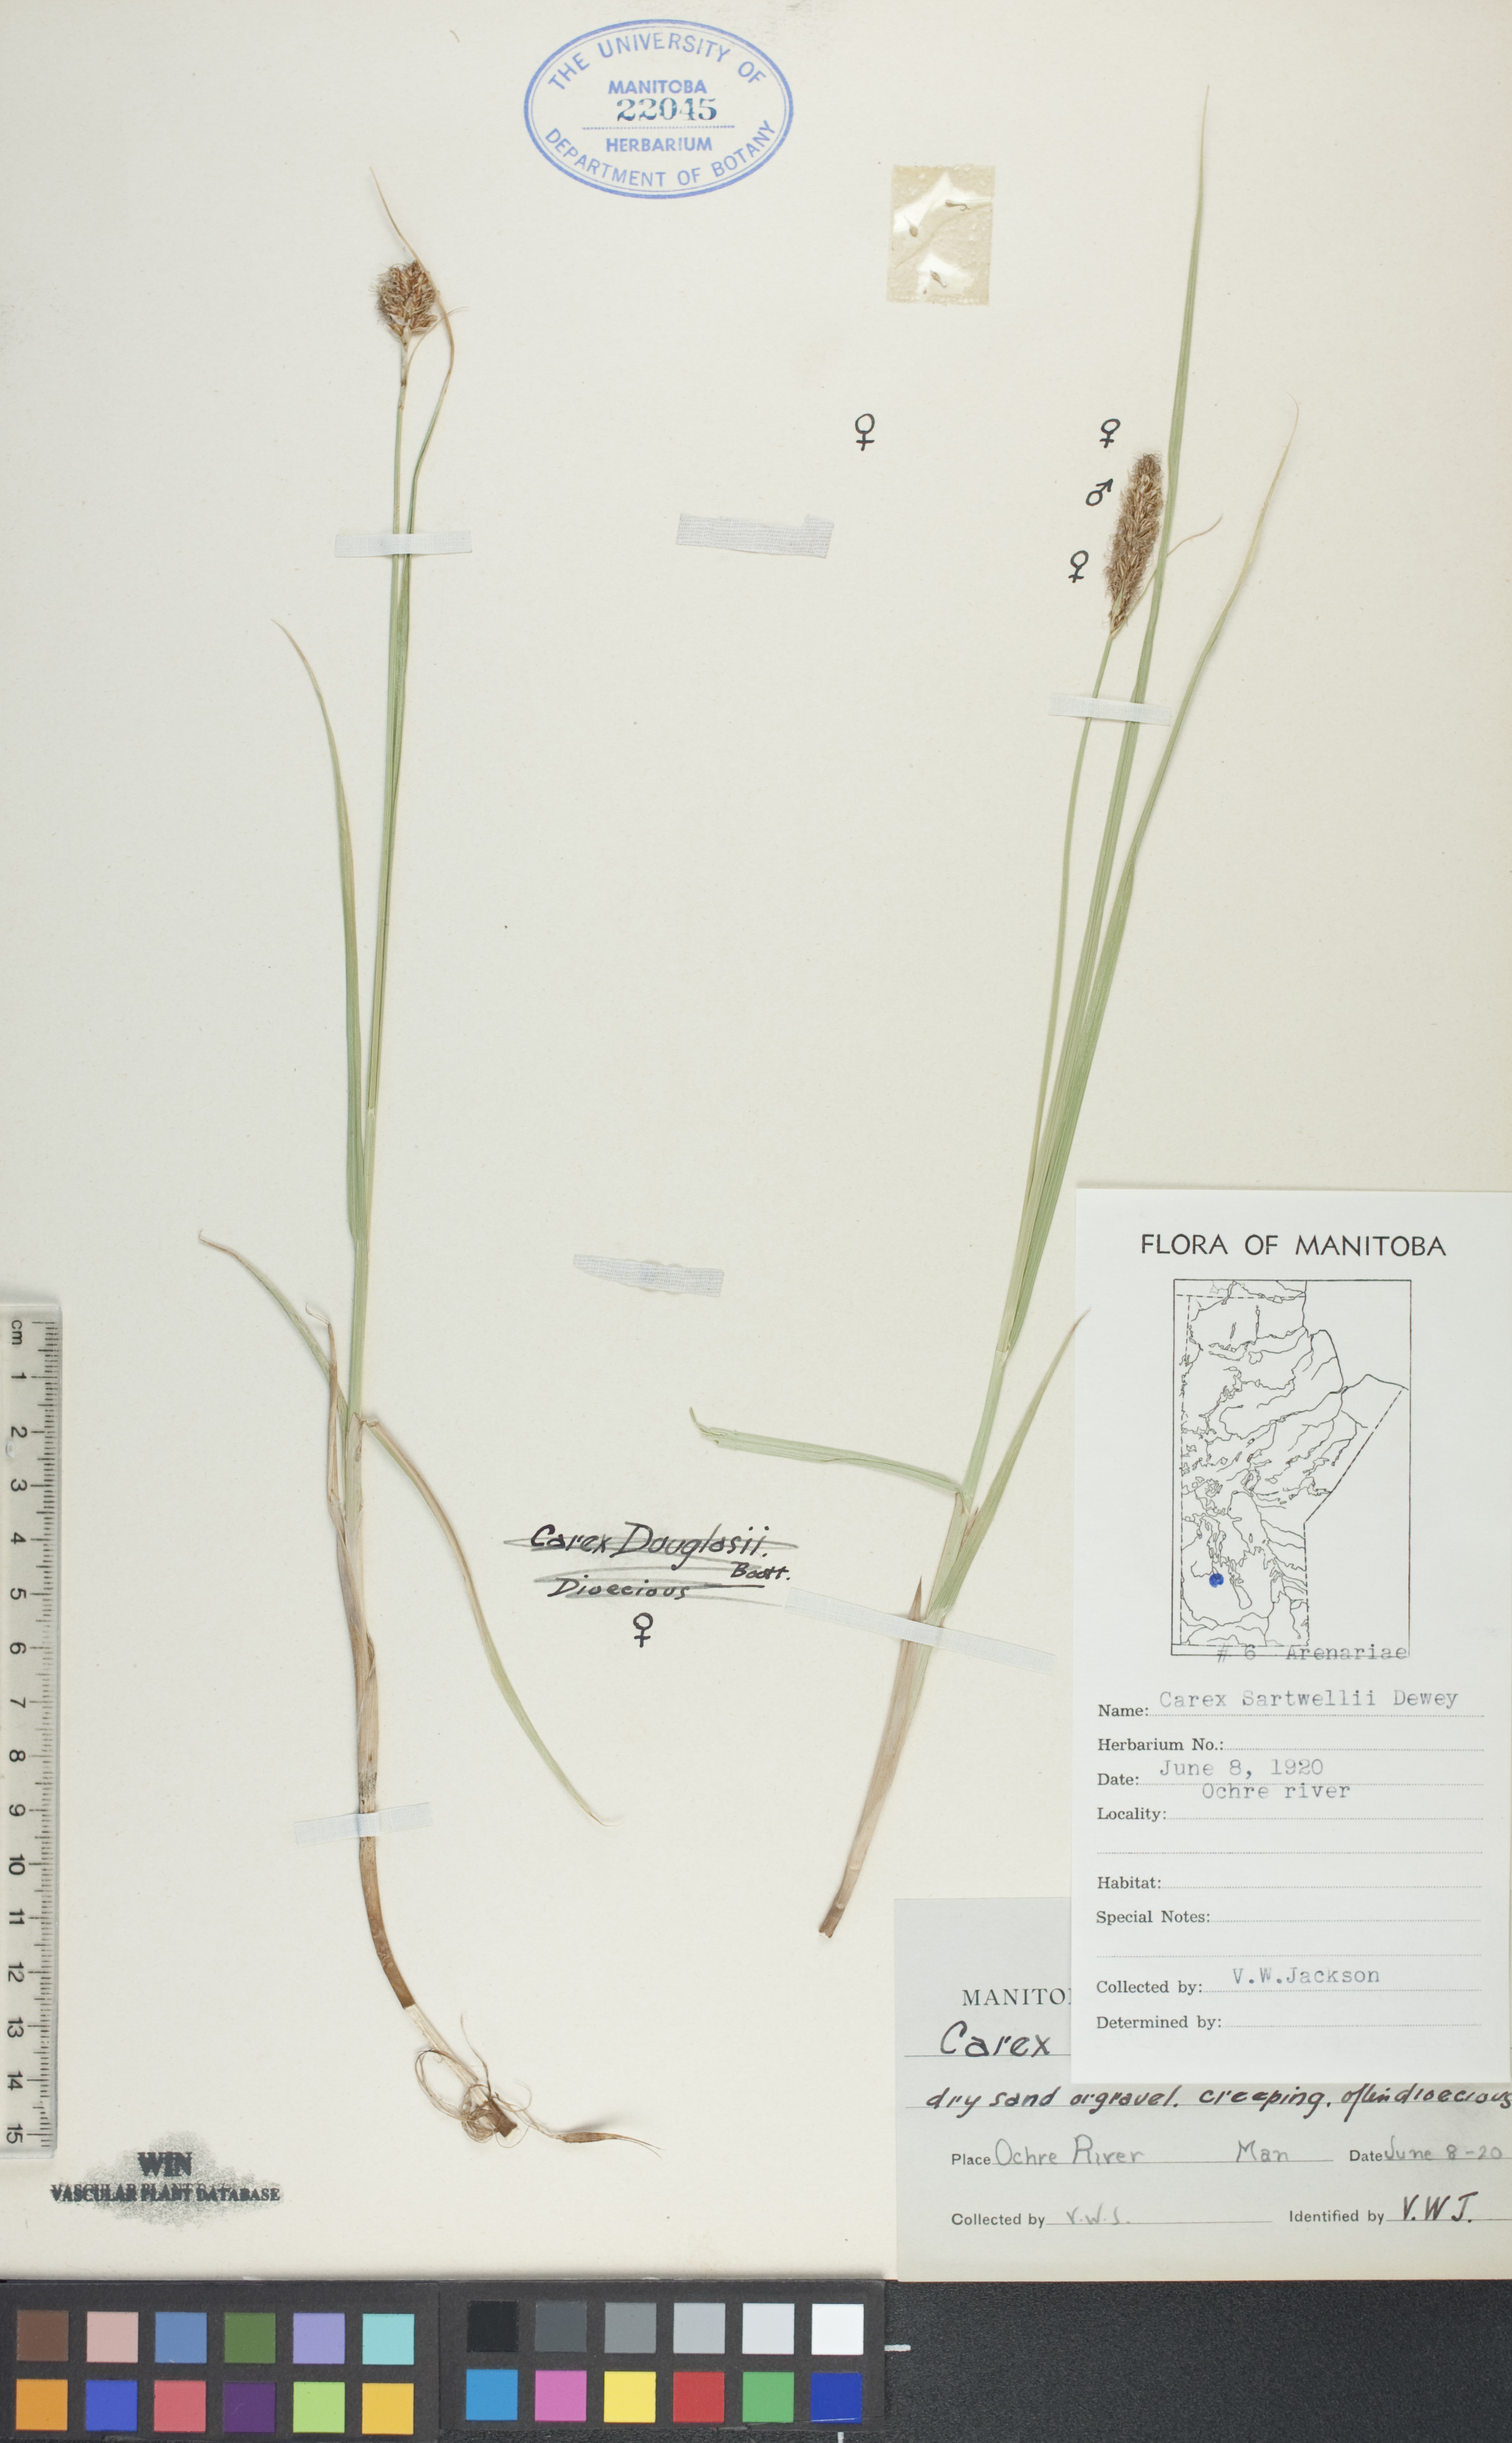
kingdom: Plantae
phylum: Tracheophyta
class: Liliopsida
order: Poales
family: Cyperaceae
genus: Carex
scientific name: Carex sartwellii
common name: Sartwell's sedge
